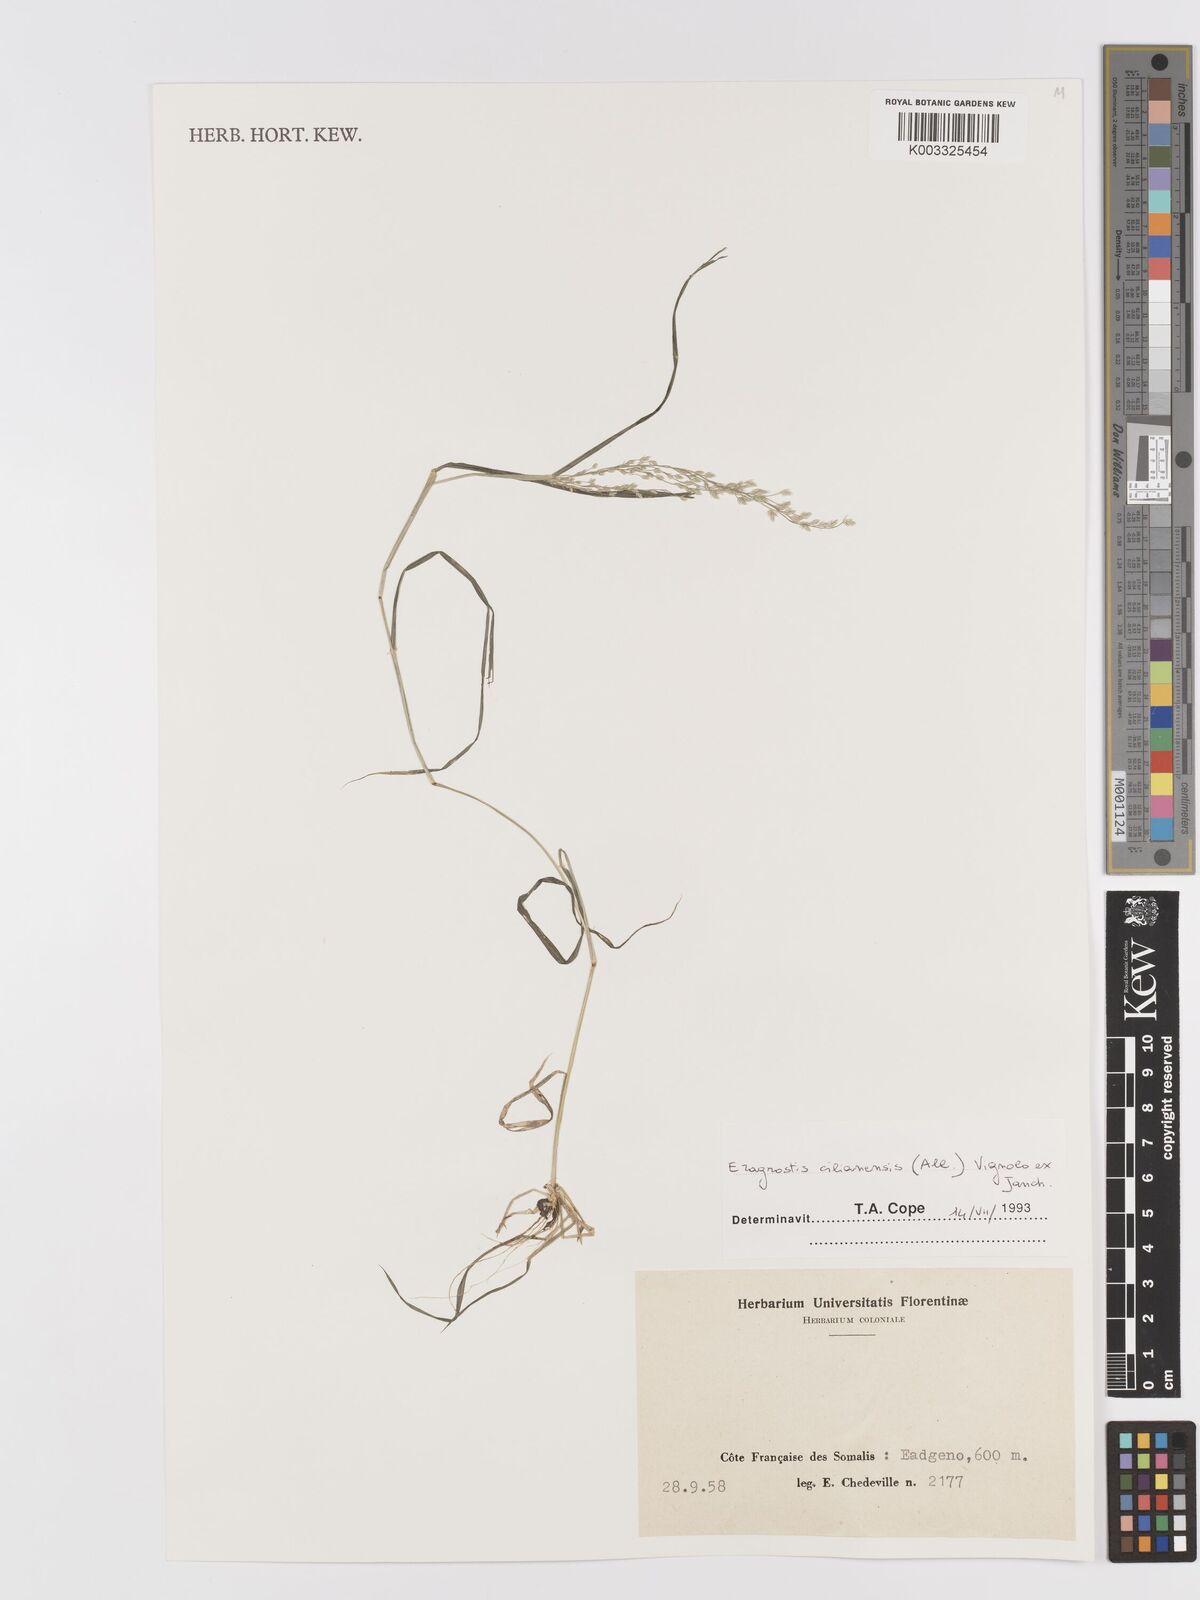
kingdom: Plantae
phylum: Tracheophyta
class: Liliopsida
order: Poales
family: Poaceae
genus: Eragrostis
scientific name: Eragrostis cilianensis
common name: Stinkgrass
